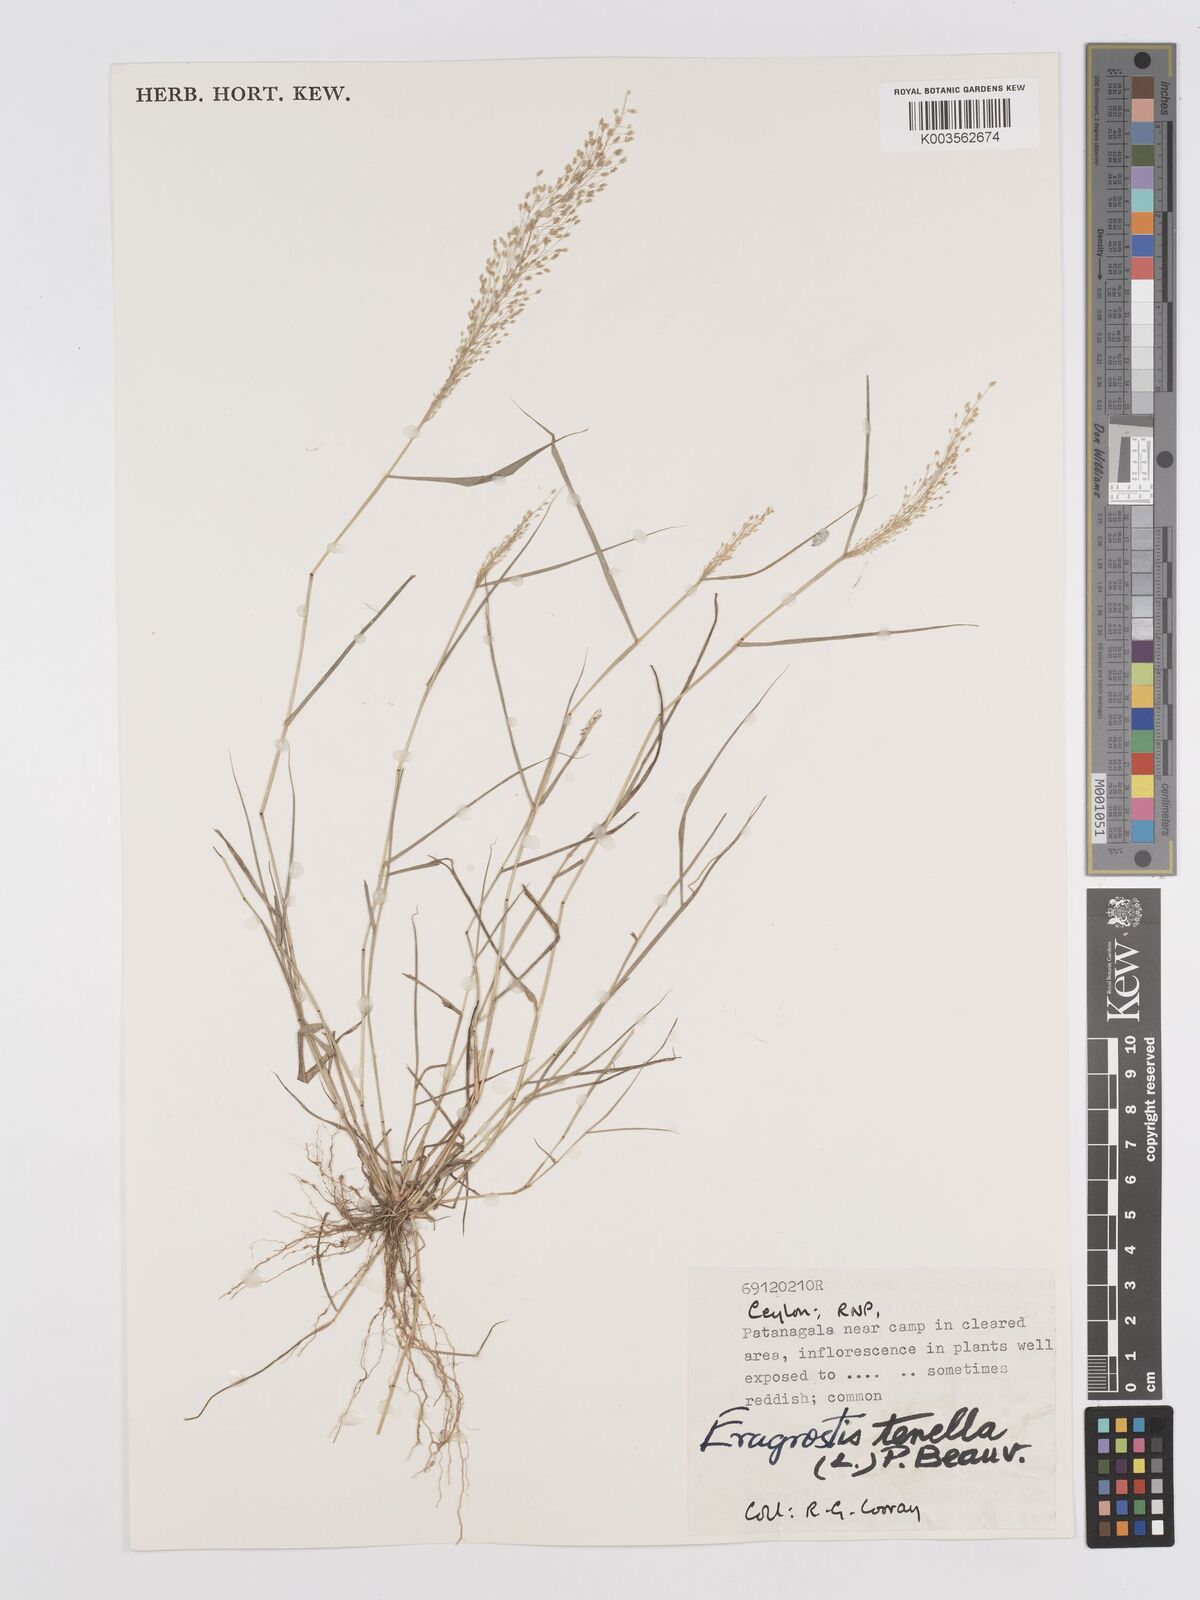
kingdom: Plantae
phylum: Tracheophyta
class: Liliopsida
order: Poales
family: Poaceae
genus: Eragrostis
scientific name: Eragrostis tenella
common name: Japanese lovegrass
